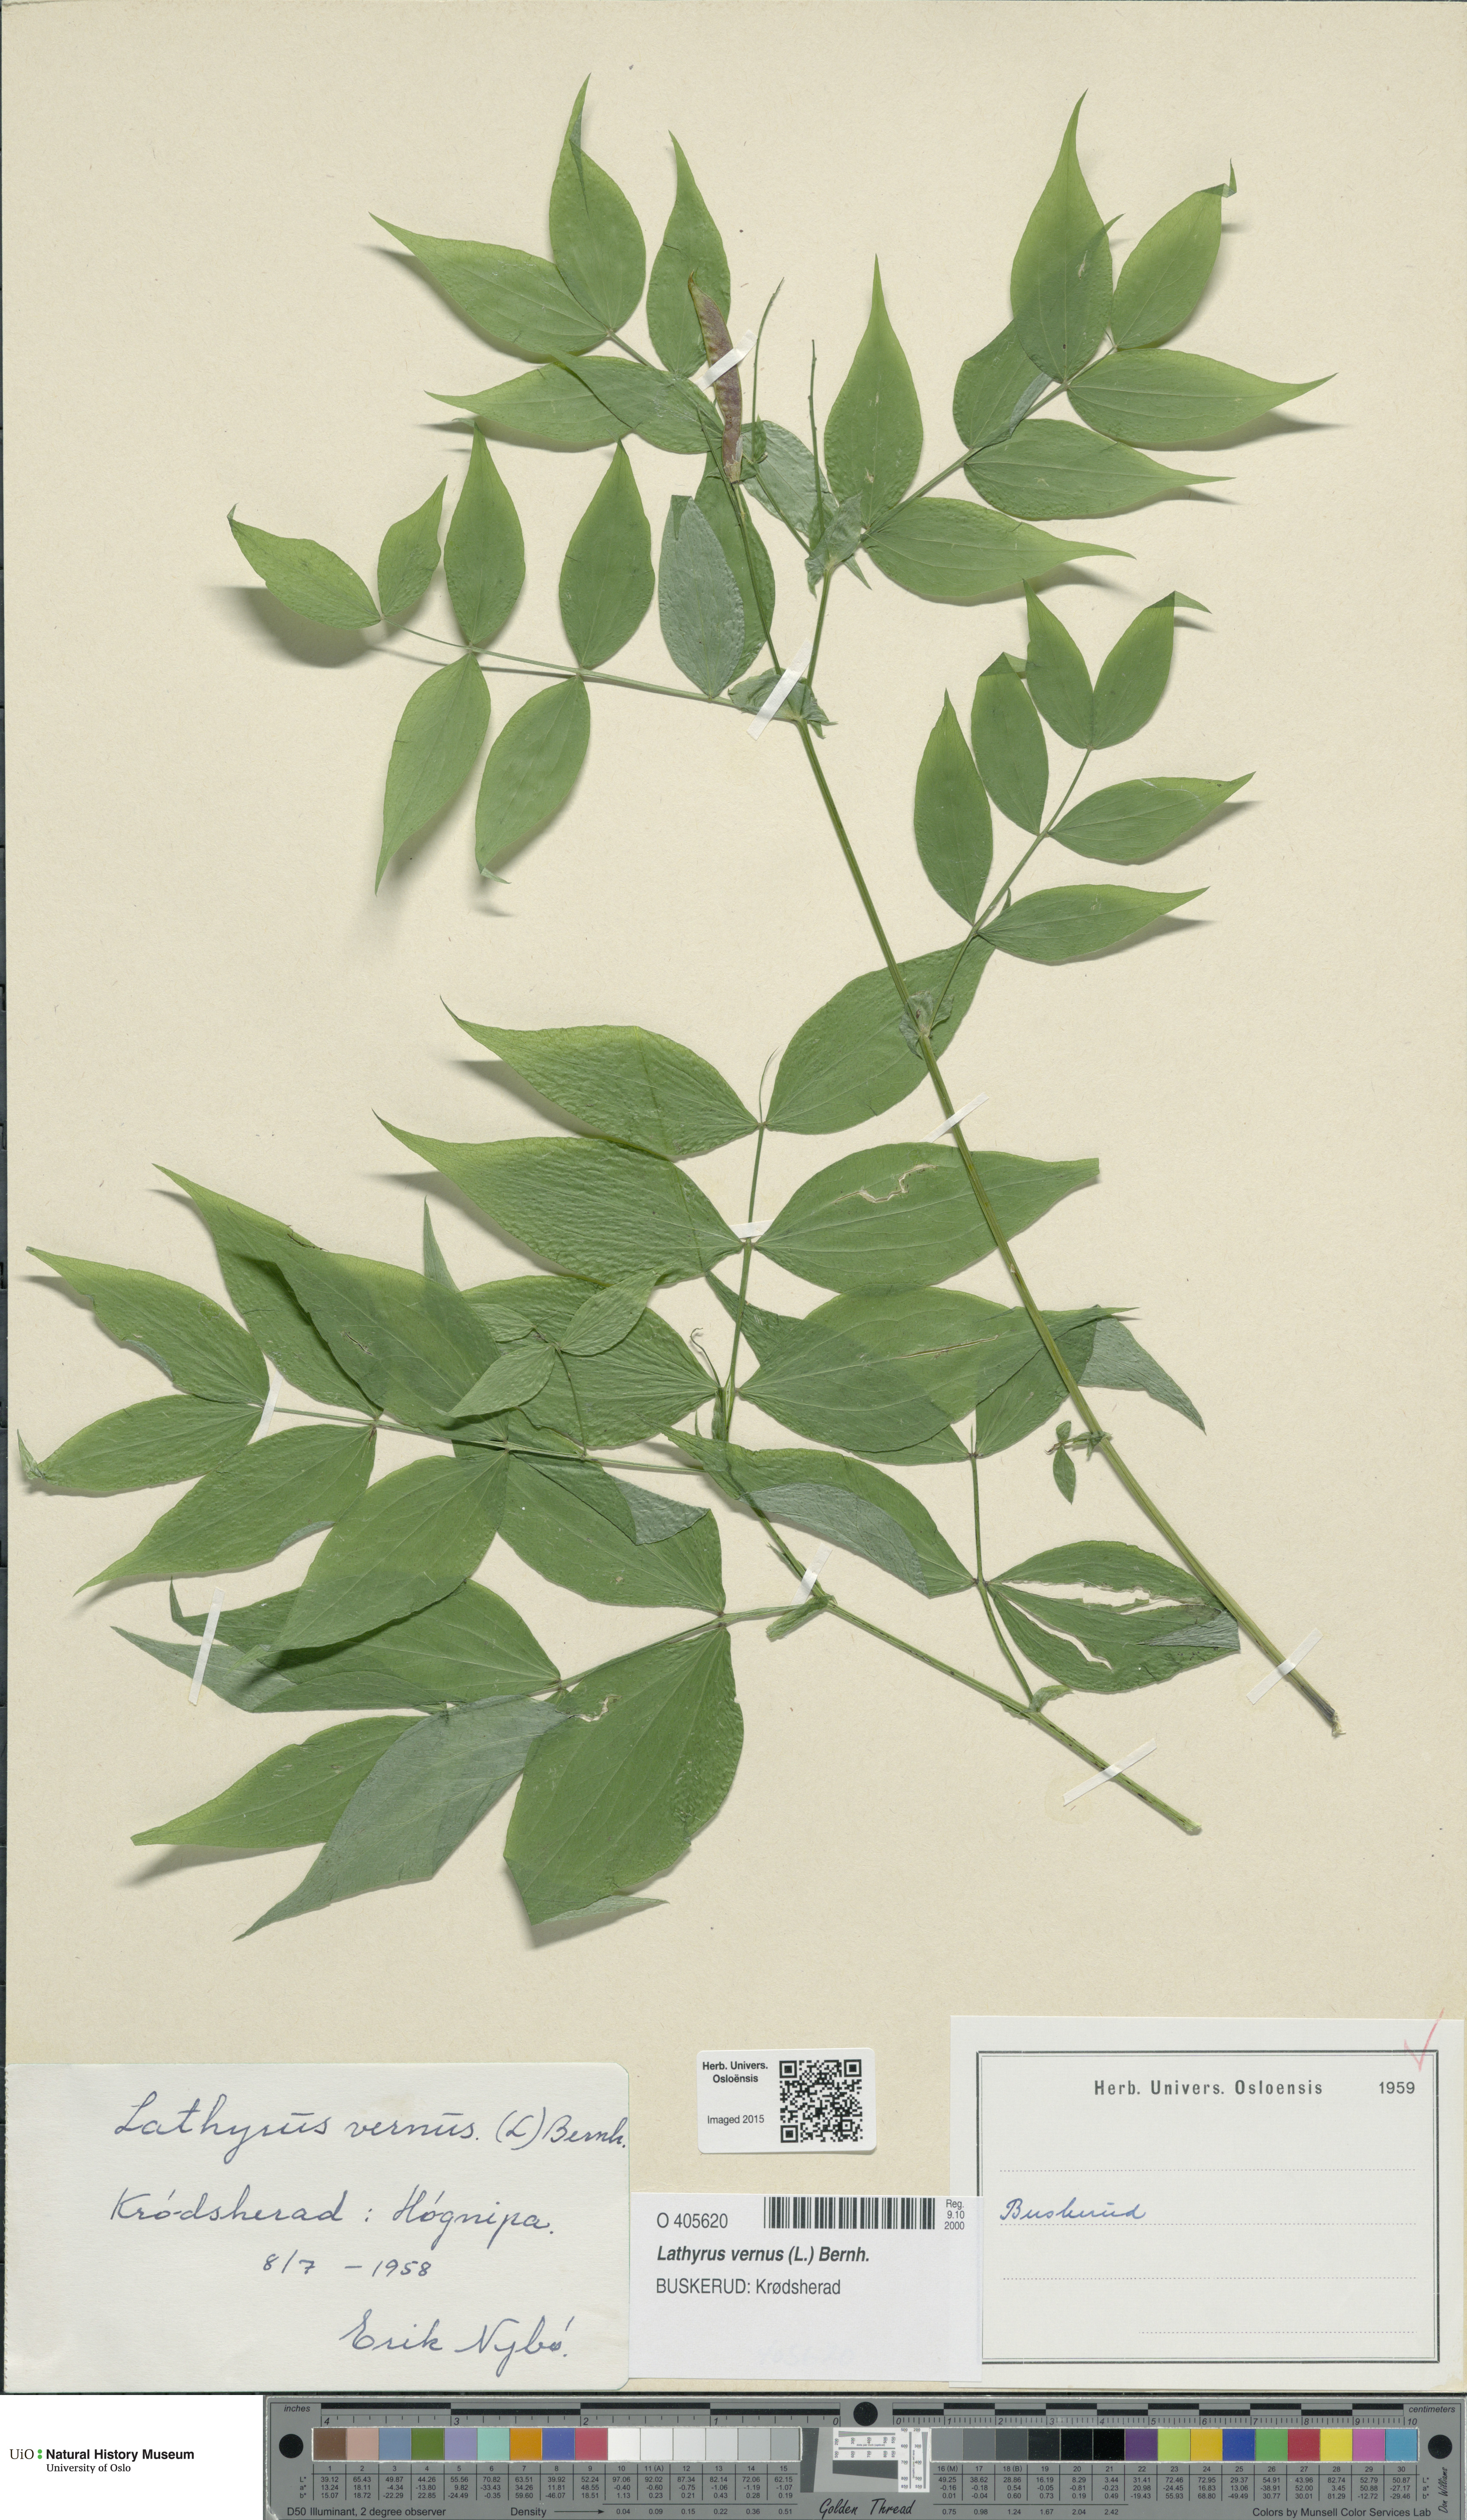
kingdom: Plantae
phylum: Tracheophyta
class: Magnoliopsida
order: Fabales
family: Fabaceae
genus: Lathyrus
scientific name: Lathyrus vernus
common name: Spring pea
